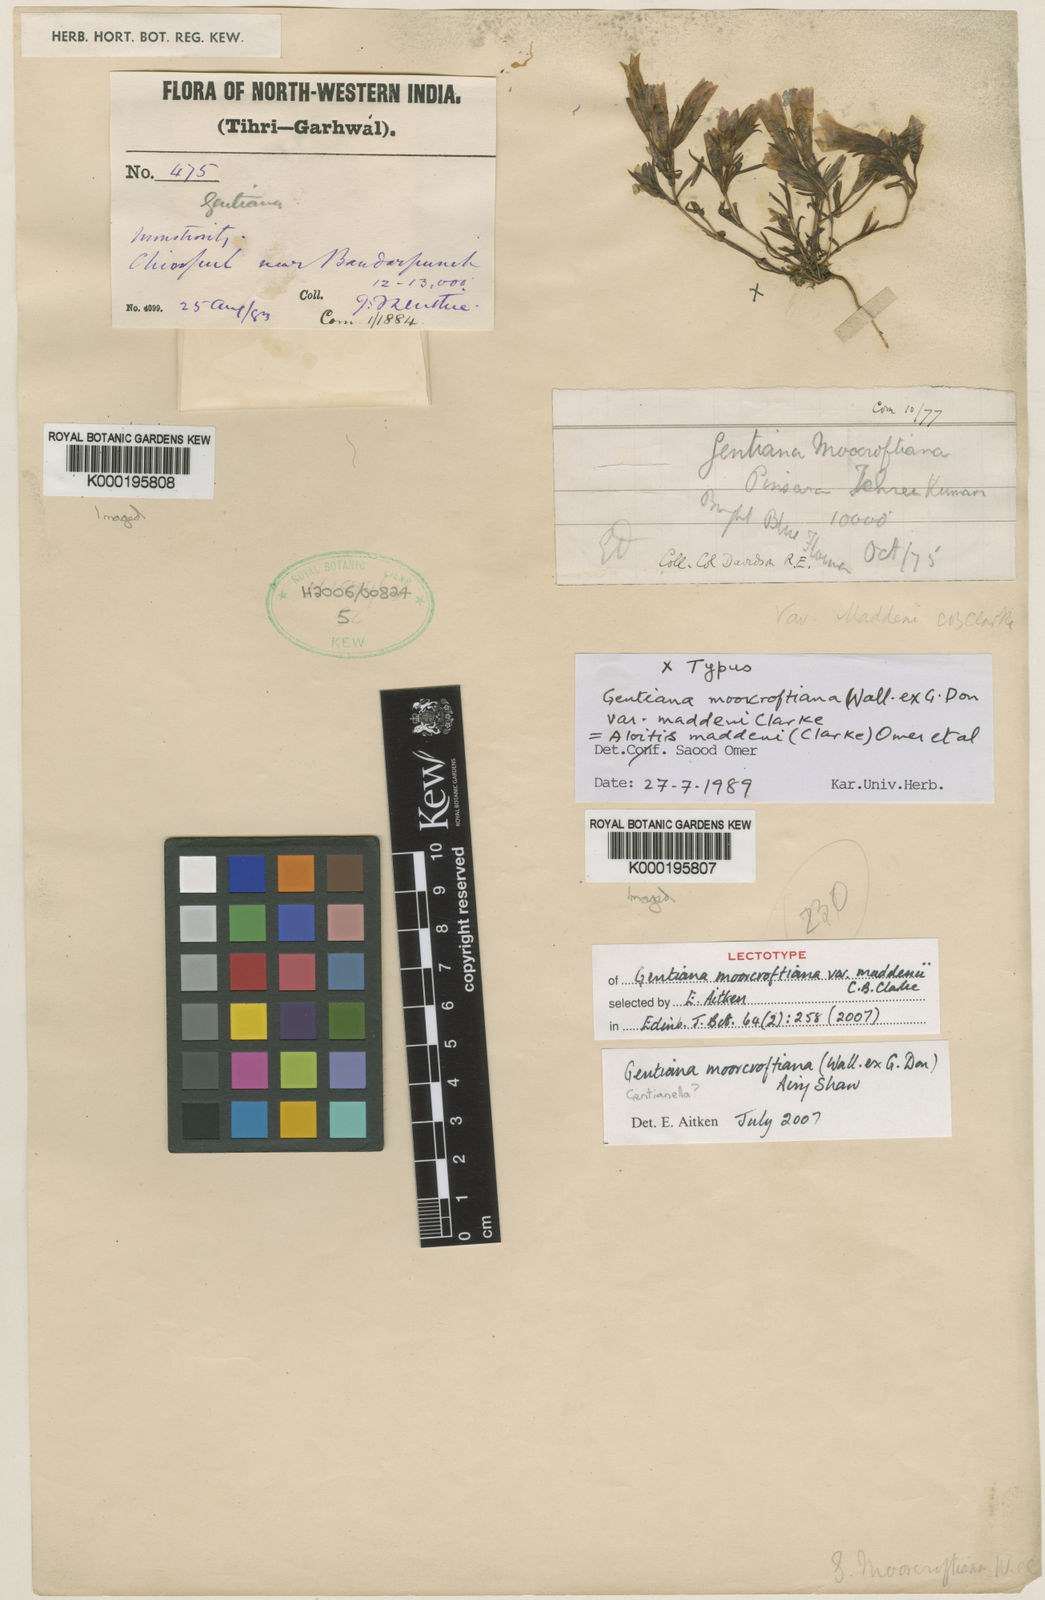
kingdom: Plantae
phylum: Tracheophyta
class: Magnoliopsida
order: Gentianales
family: Gentianaceae
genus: Gentiana
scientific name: Gentiana
